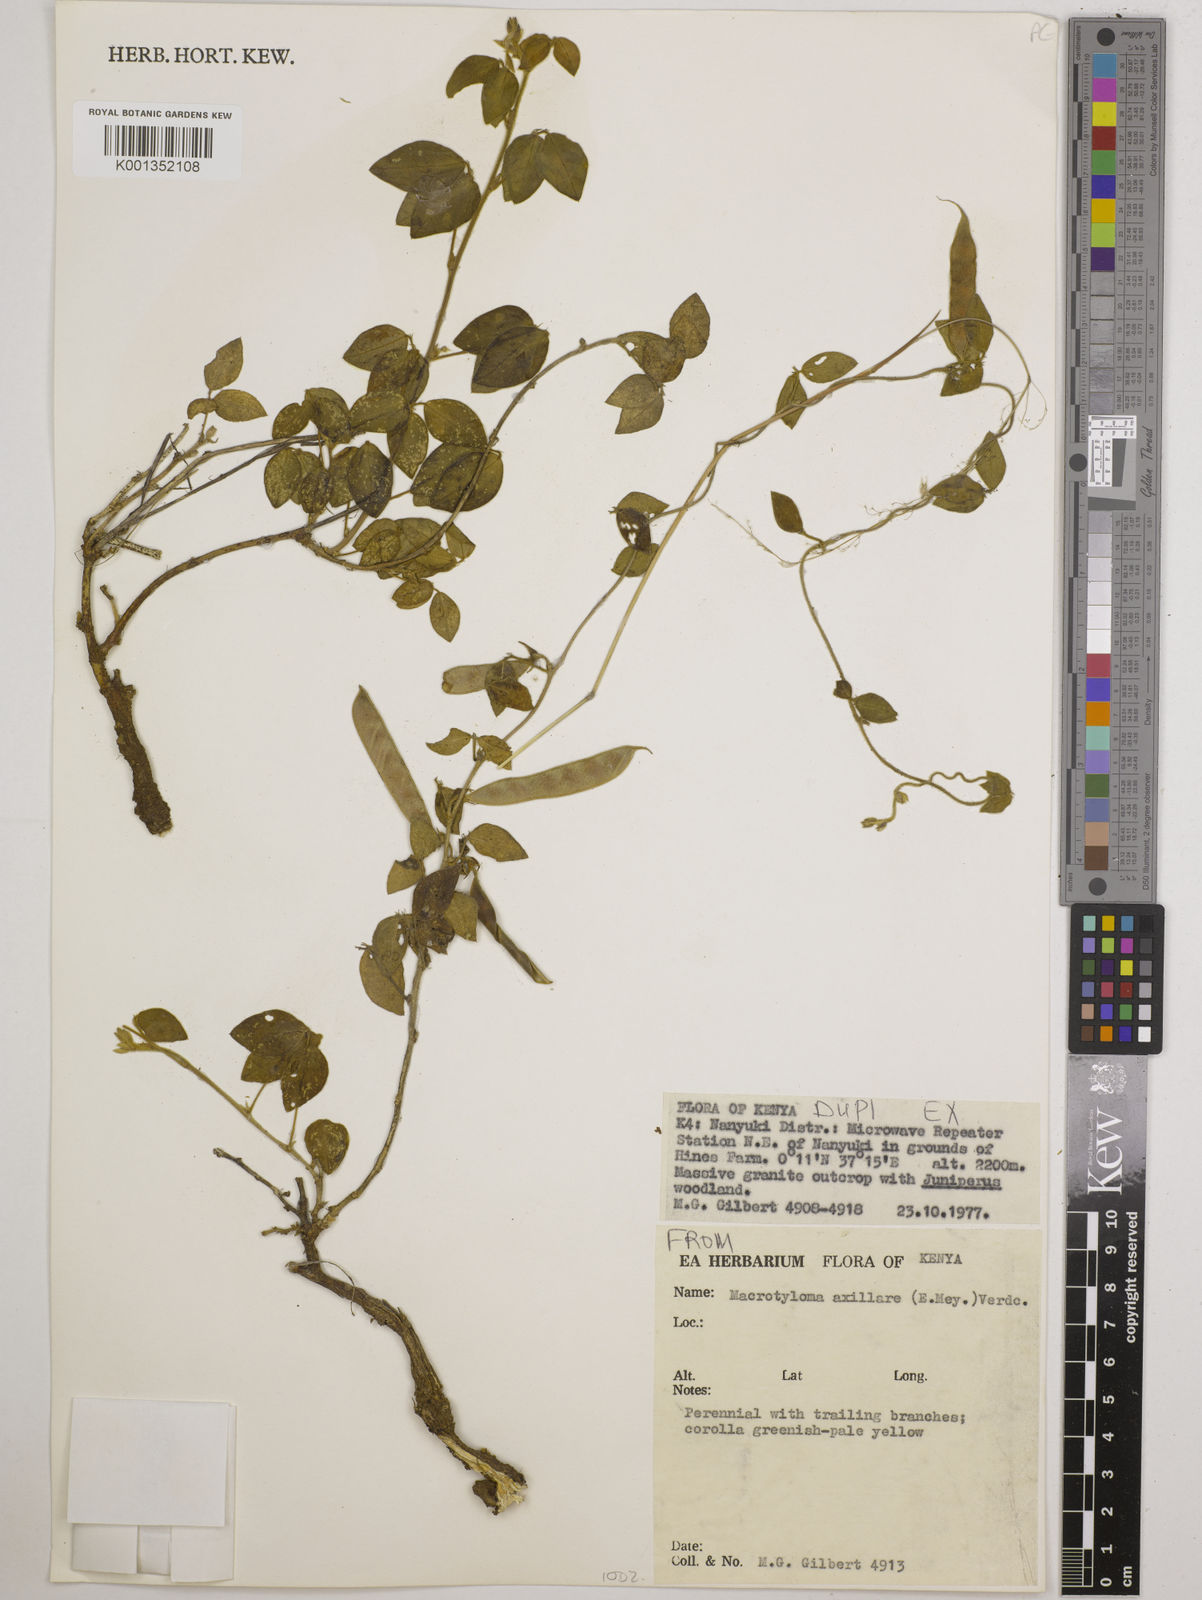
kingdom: Plantae
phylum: Tracheophyta
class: Magnoliopsida
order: Fabales
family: Fabaceae
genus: Macrotyloma
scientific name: Macrotyloma axillare
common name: Perennial horsegram
